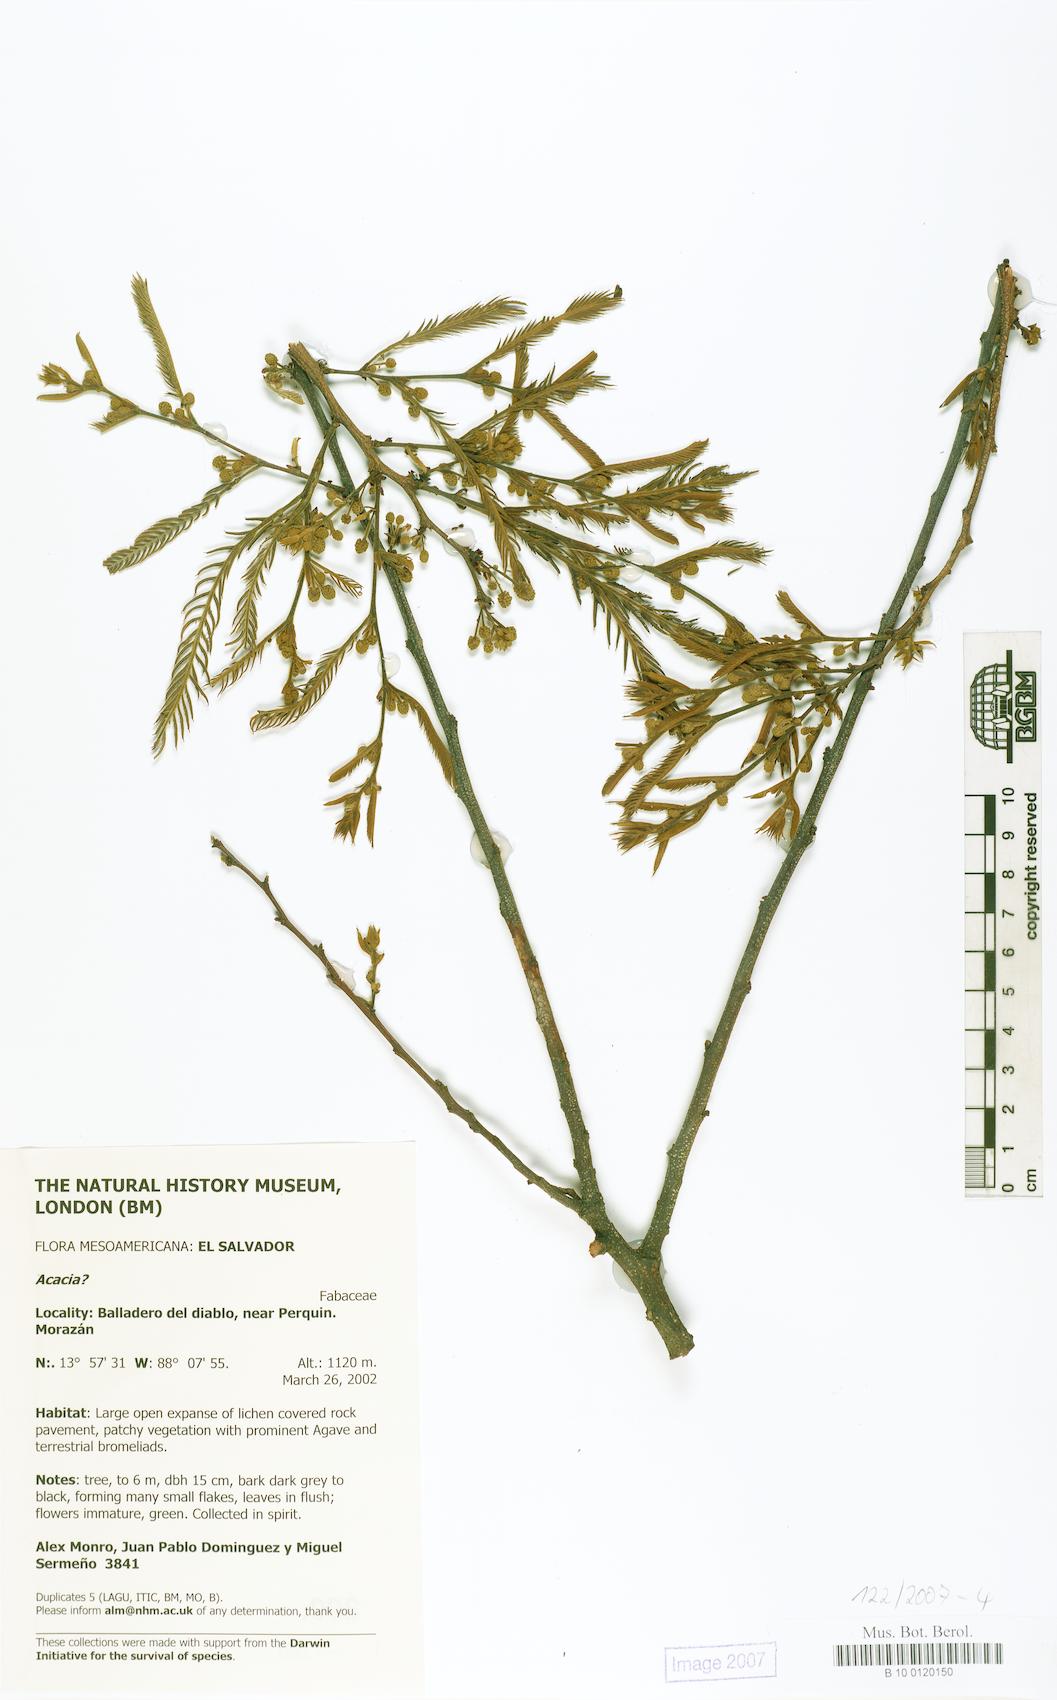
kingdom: Plantae
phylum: Tracheophyta
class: Magnoliopsida
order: Fabales
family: Fabaceae
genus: Acacia
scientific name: Acacia
